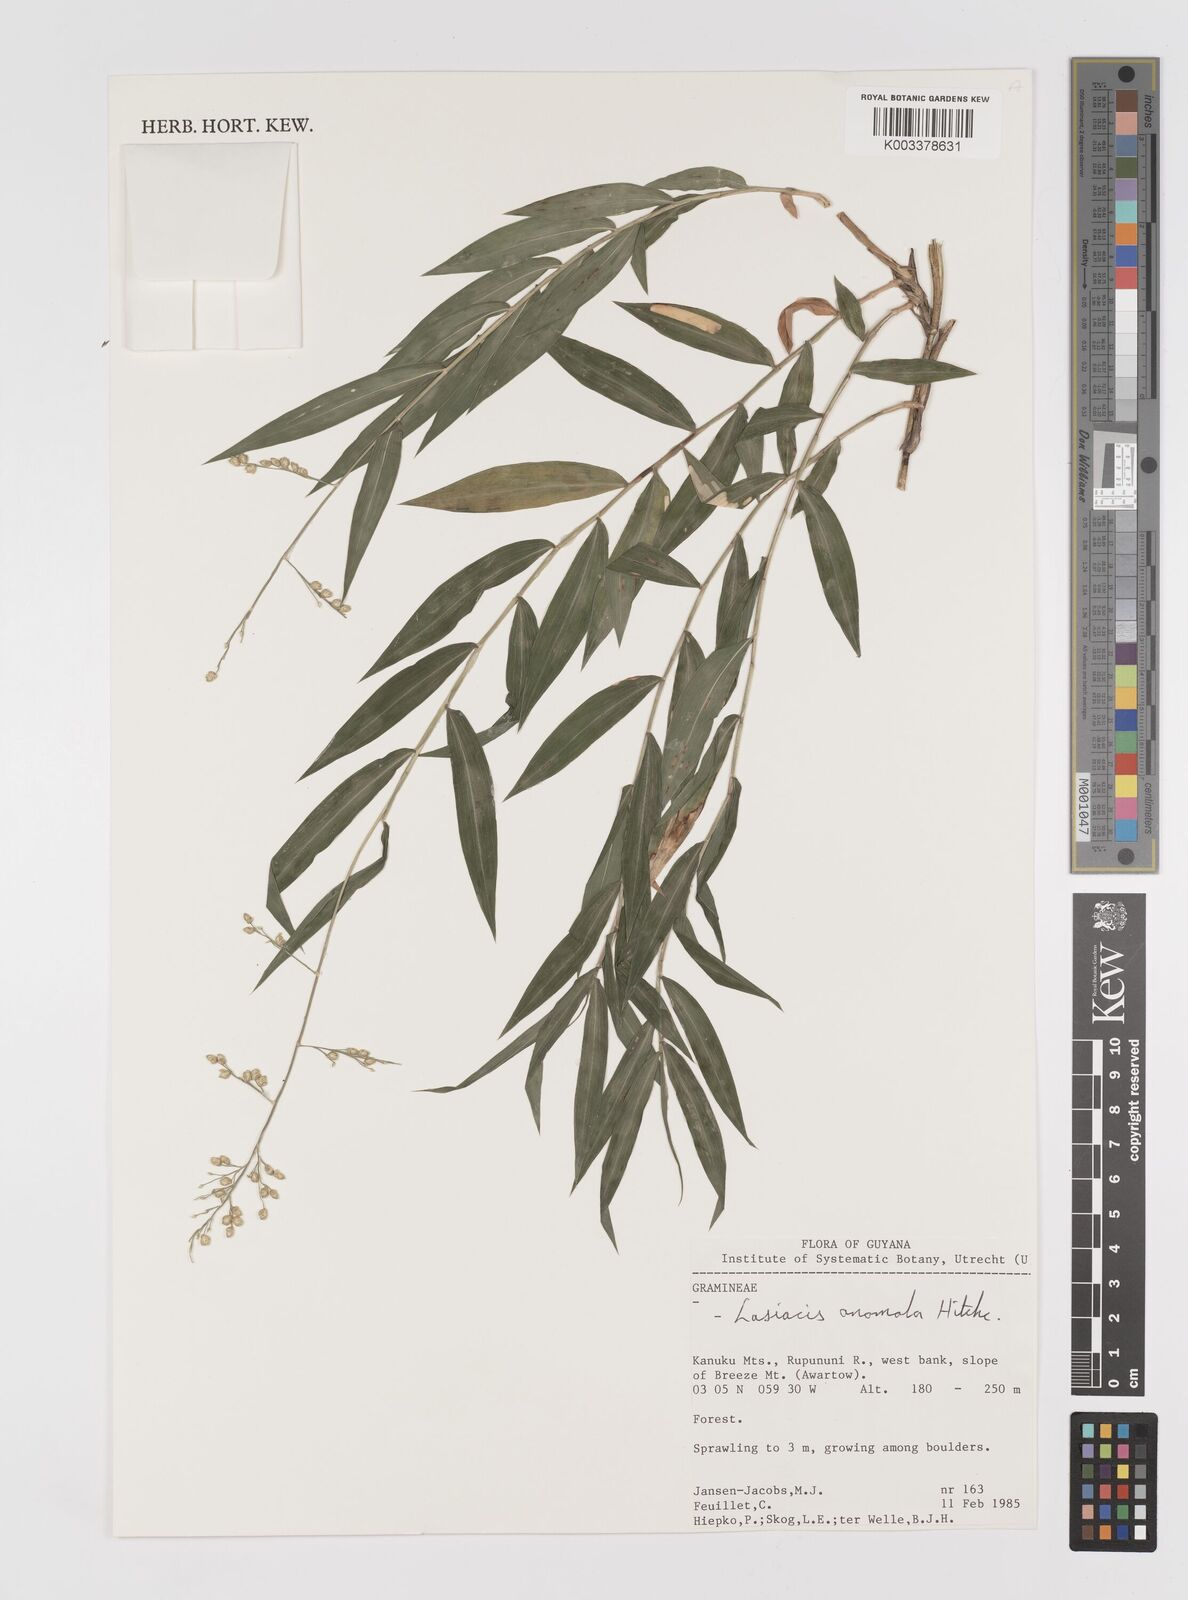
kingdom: Plantae
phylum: Tracheophyta
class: Liliopsida
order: Poales
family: Poaceae
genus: Lasiacis
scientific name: Lasiacis anomala
